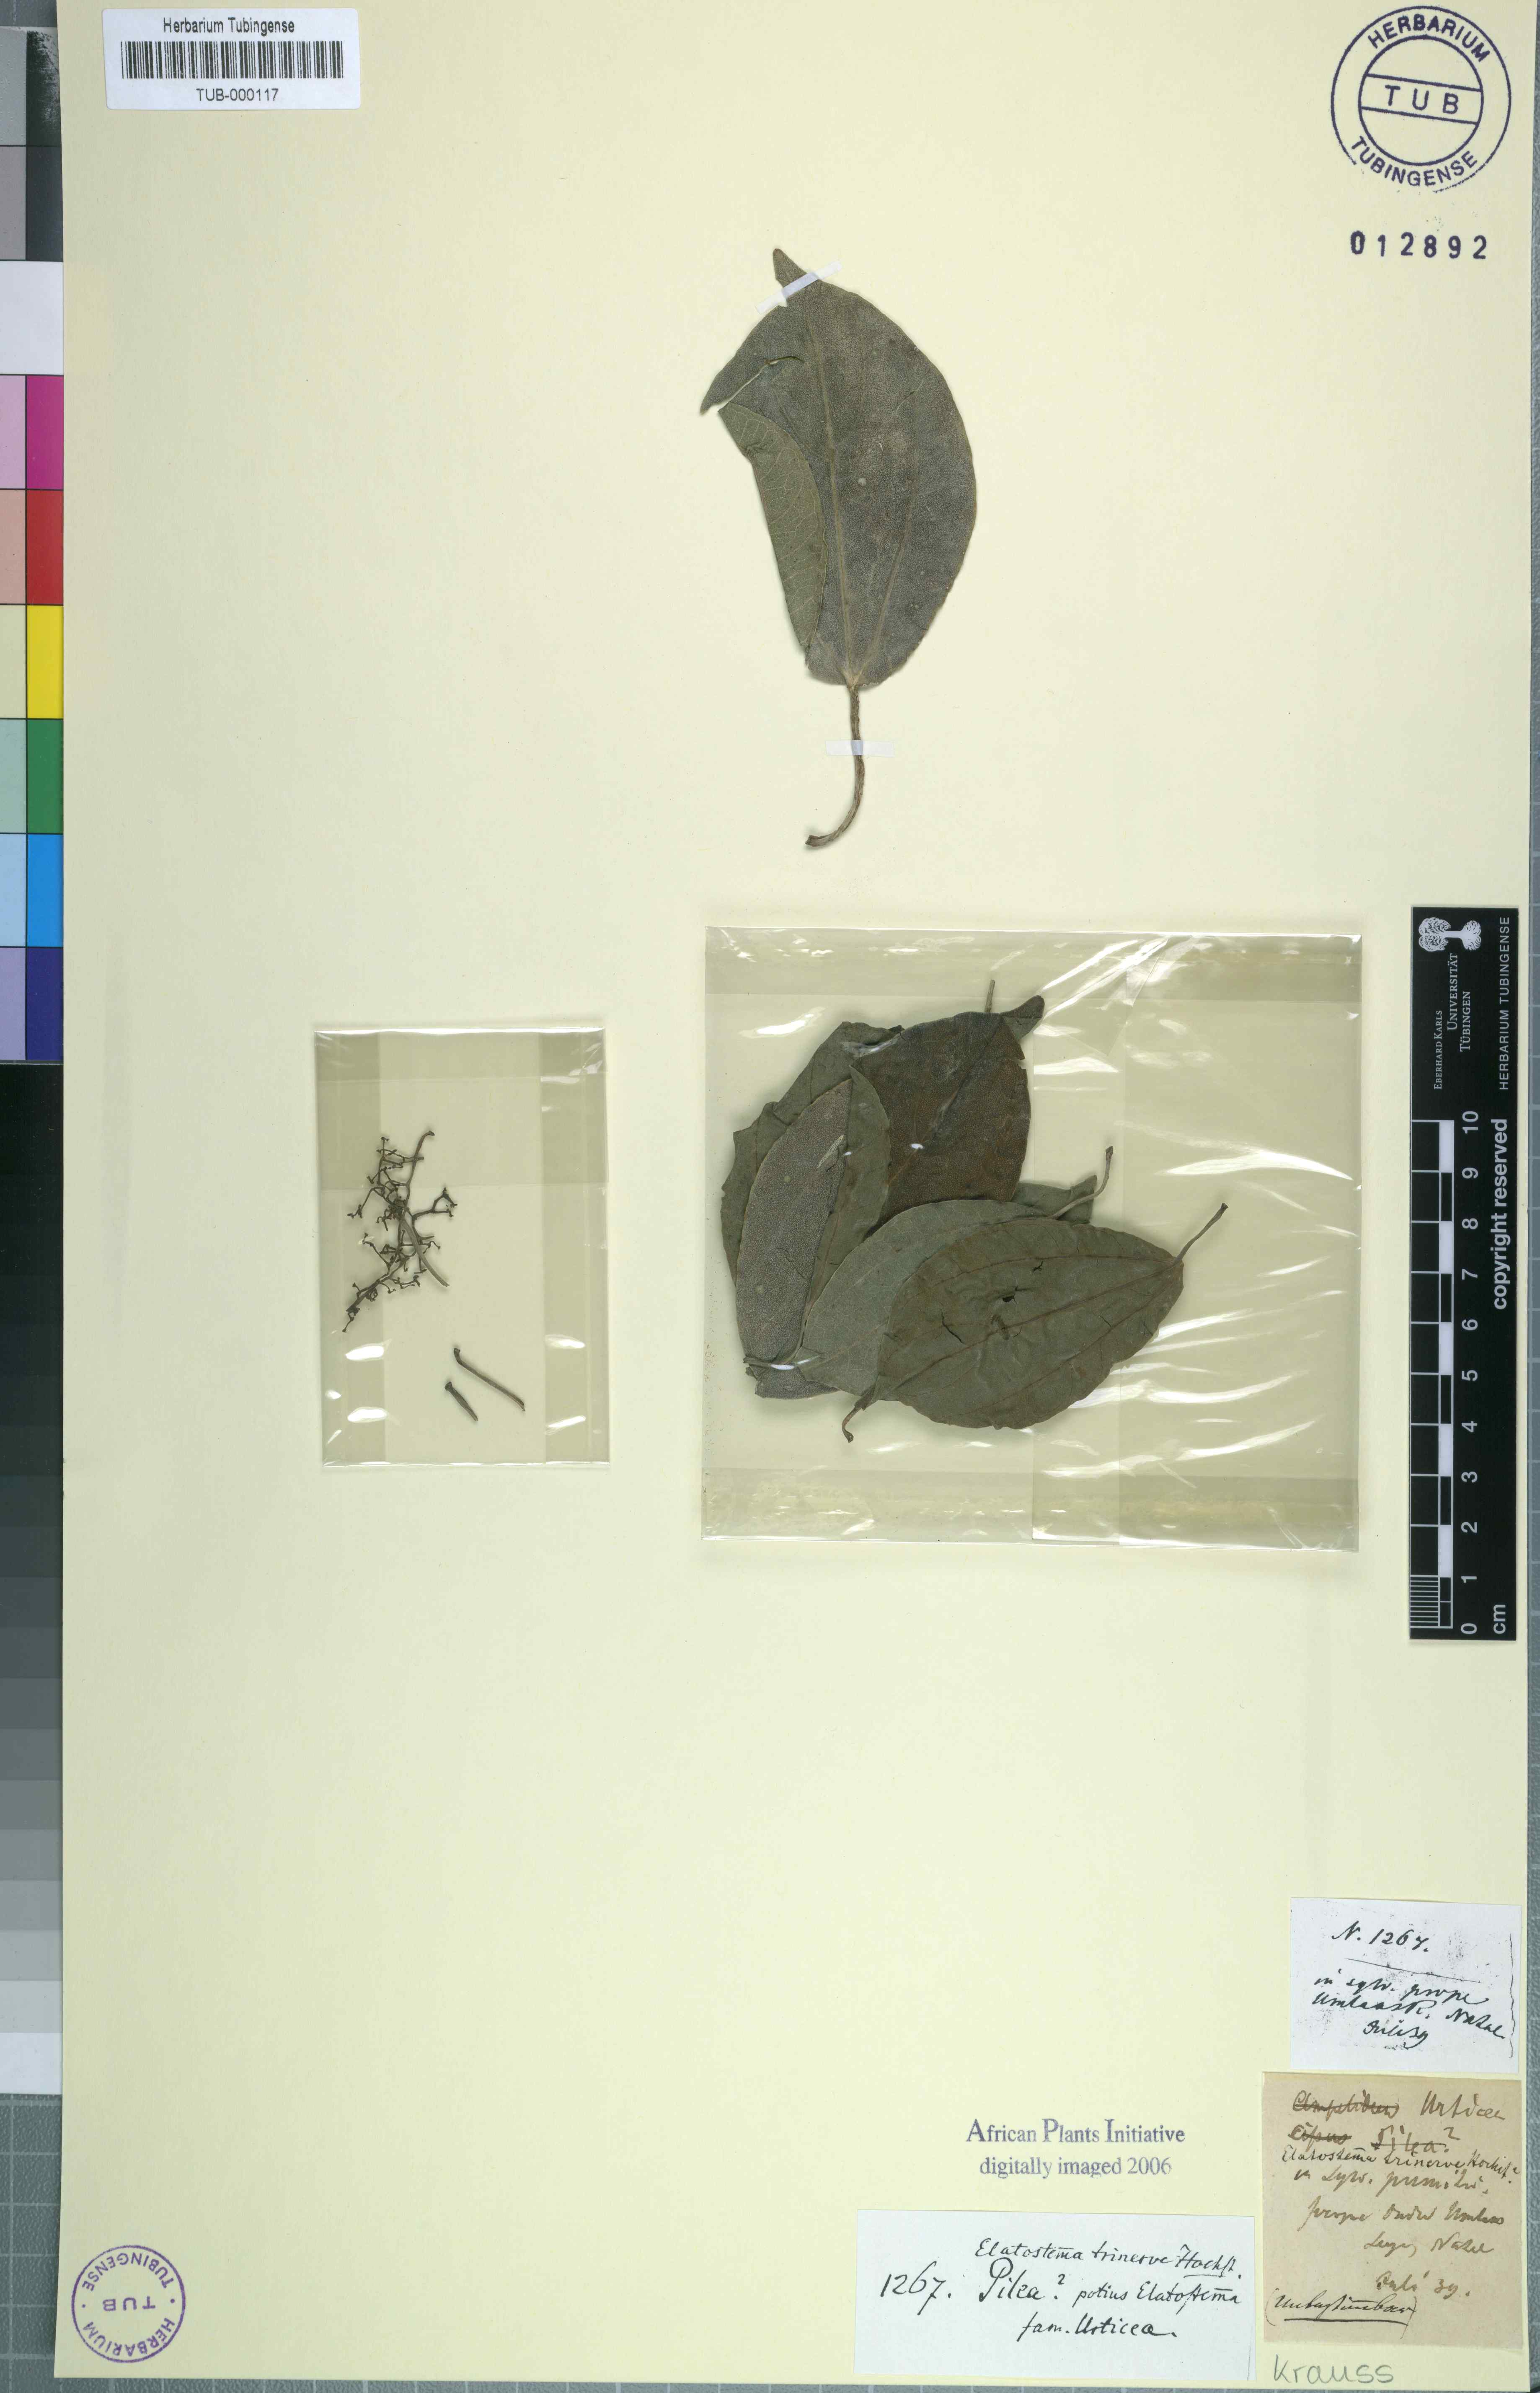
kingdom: Plantae
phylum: Tracheophyta
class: Magnoliopsida
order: Rosales
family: Urticaceae
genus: Procris
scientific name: Procris pedunculata
